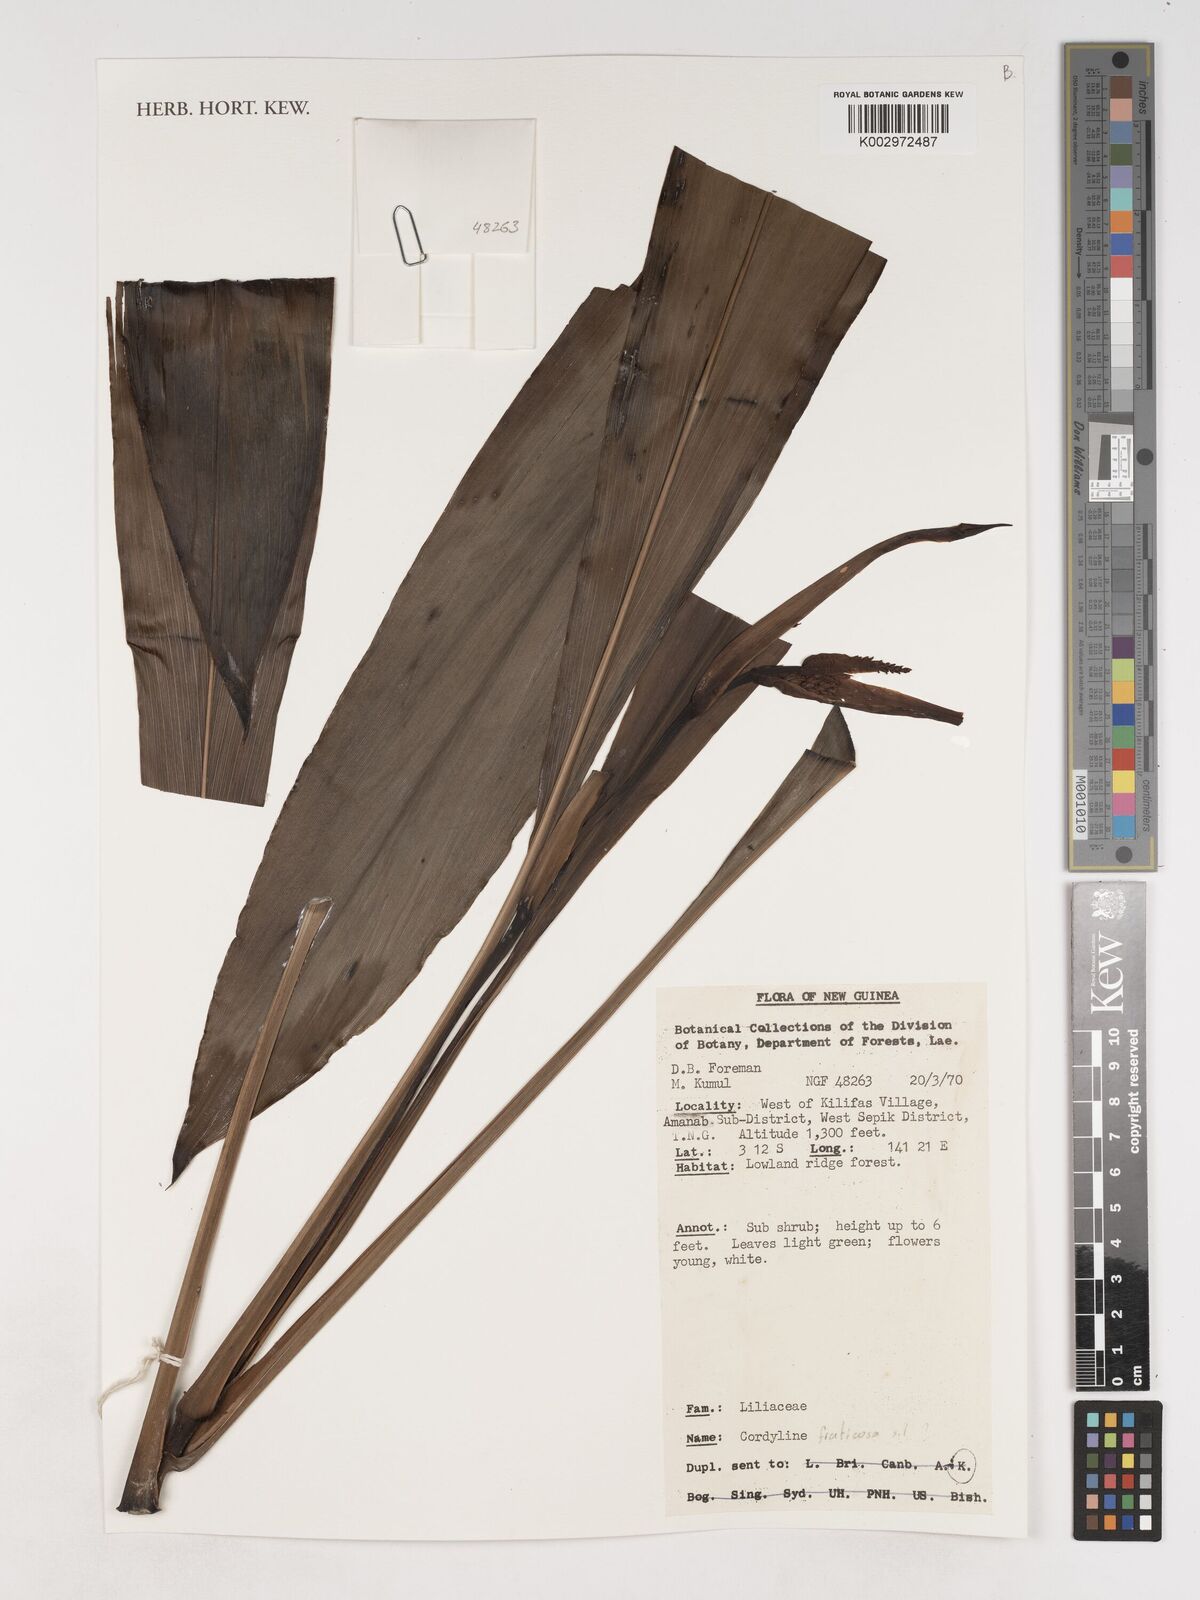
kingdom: Plantae
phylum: Tracheophyta
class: Liliopsida
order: Asparagales
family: Asparagaceae
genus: Cordyline
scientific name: Cordyline fruticosa
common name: Good-luck-plant
